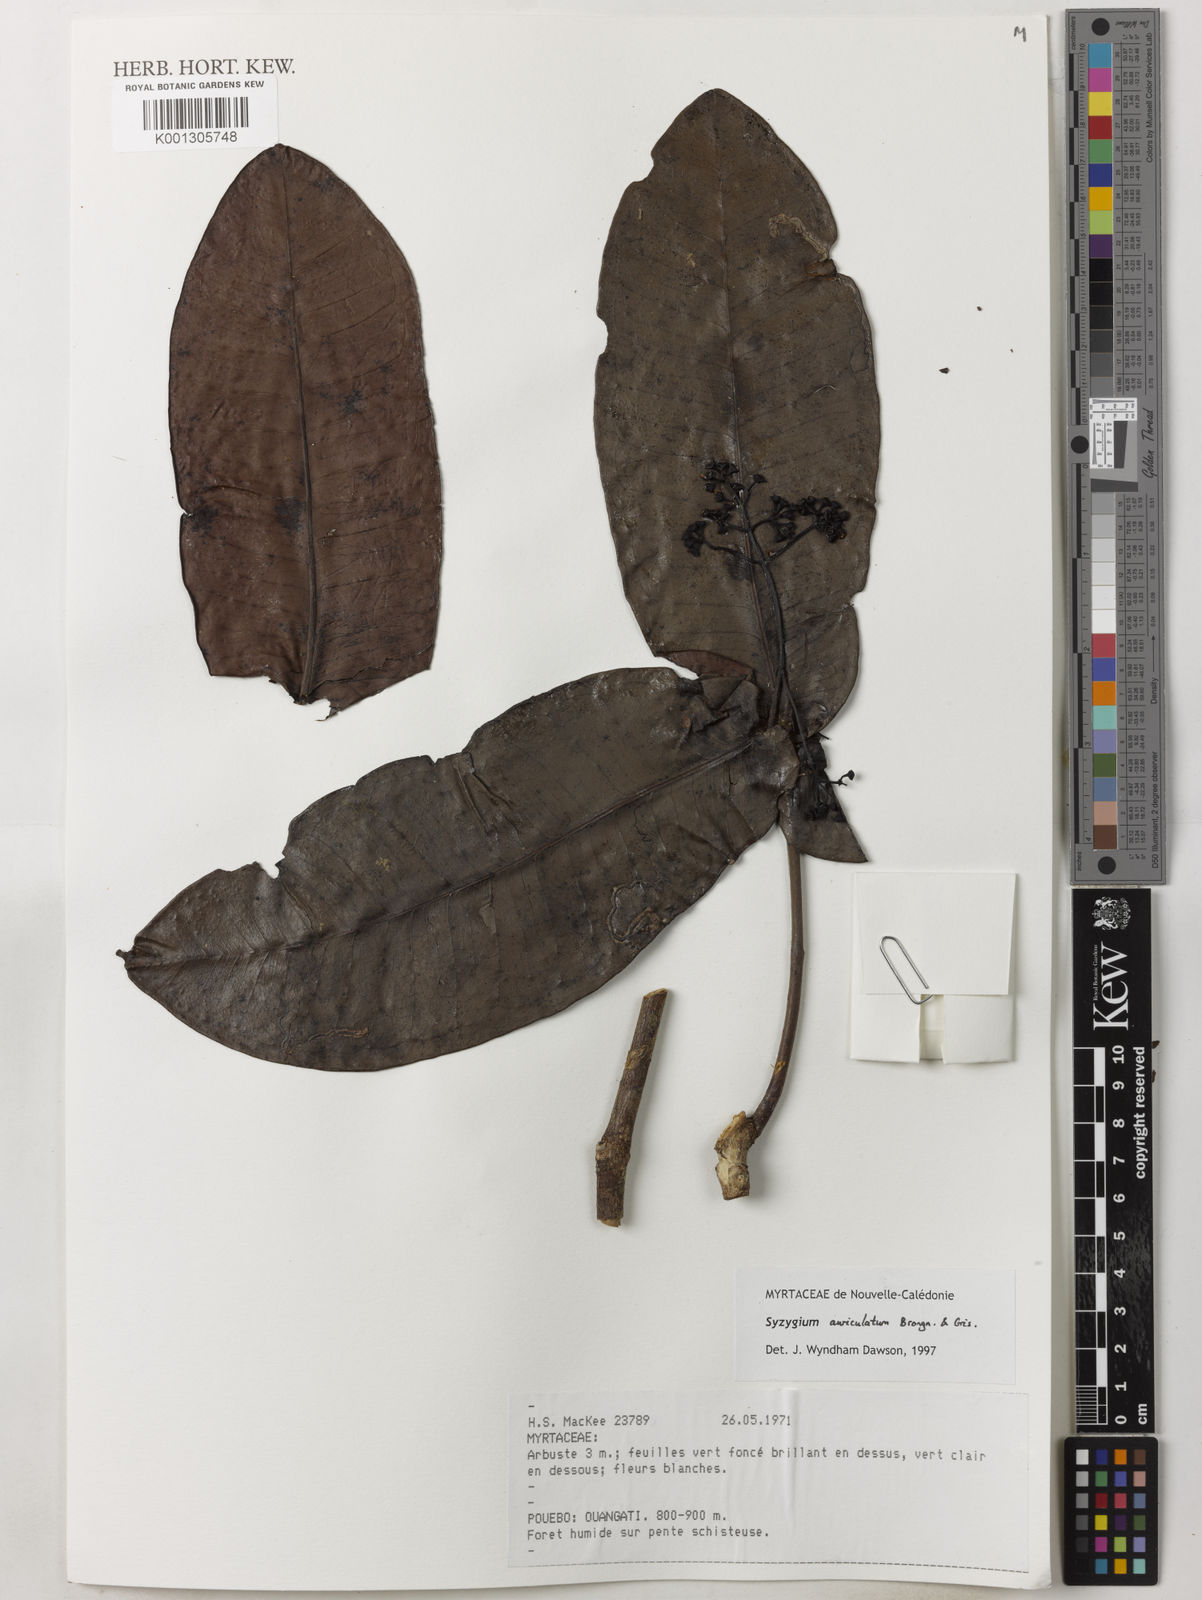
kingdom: Plantae
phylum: Tracheophyta
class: Magnoliopsida
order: Myrtales
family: Myrtaceae
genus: Syzygium
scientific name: Syzygium auriculatum
